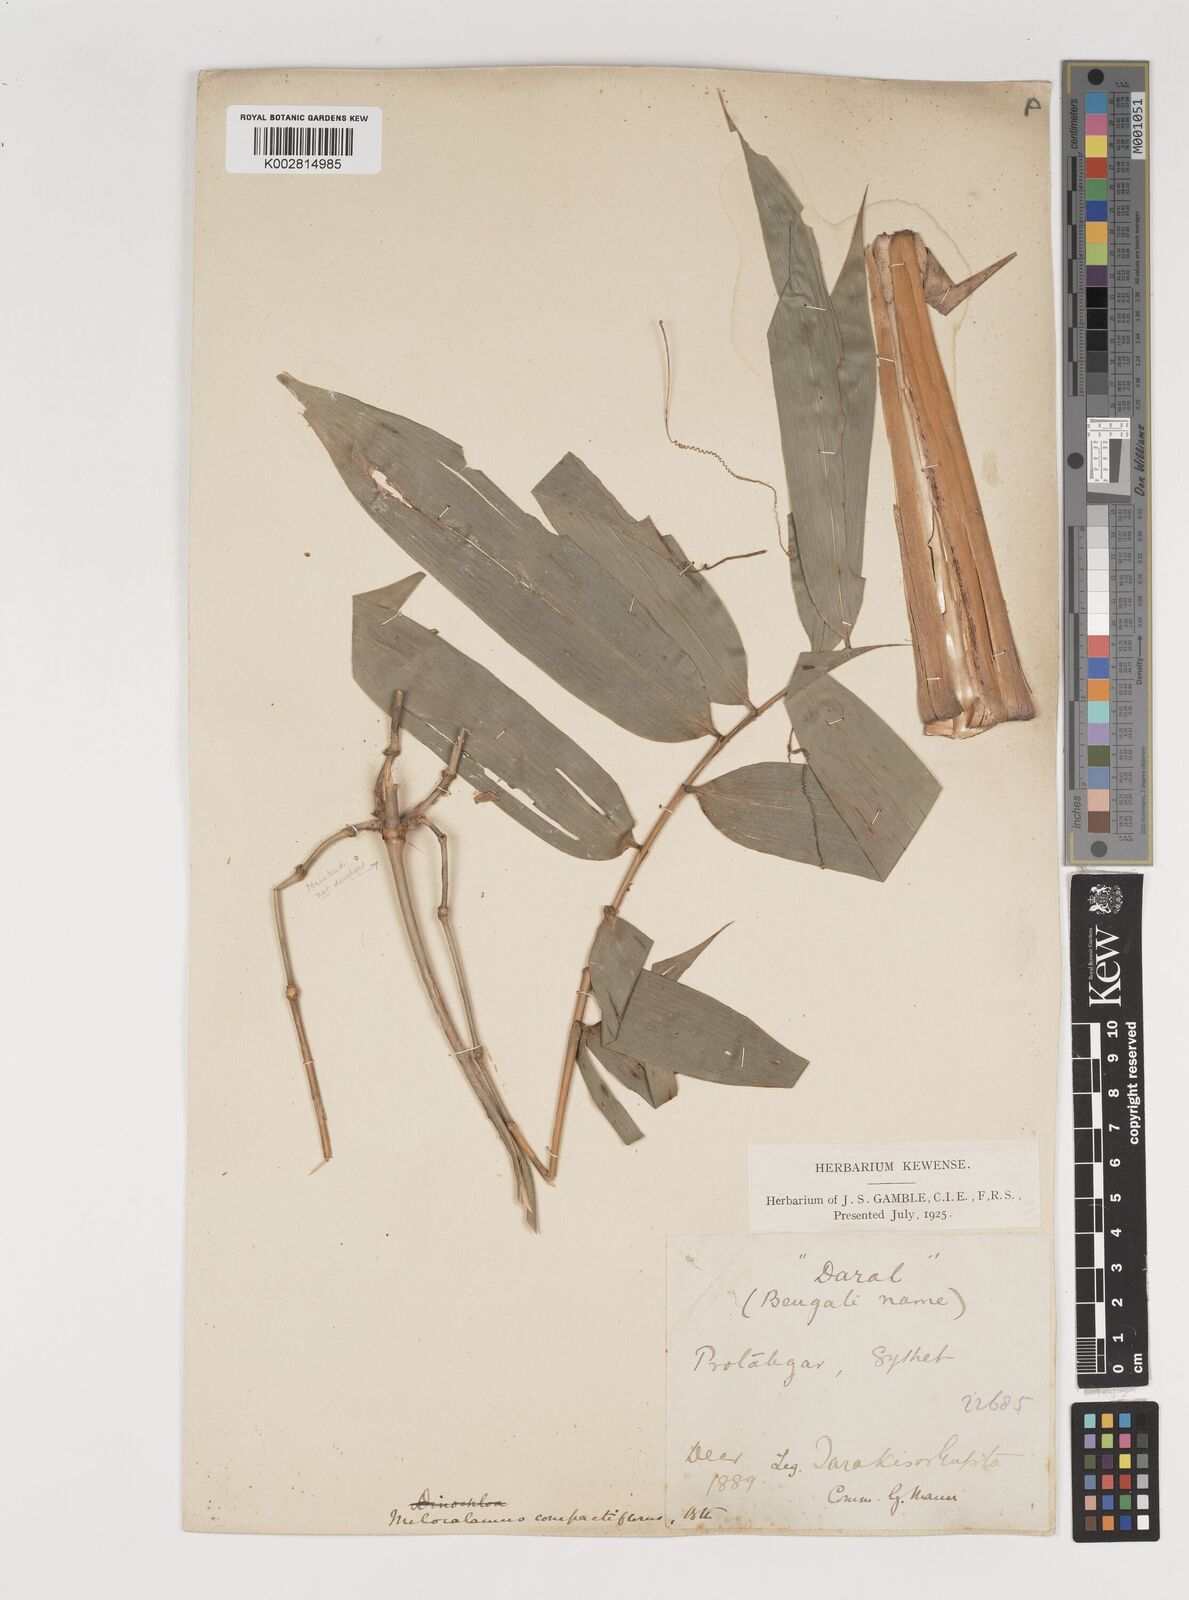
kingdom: Plantae
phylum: Tracheophyta
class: Liliopsida
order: Poales
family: Poaceae
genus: Melocalamus
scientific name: Melocalamus compactiflorus
